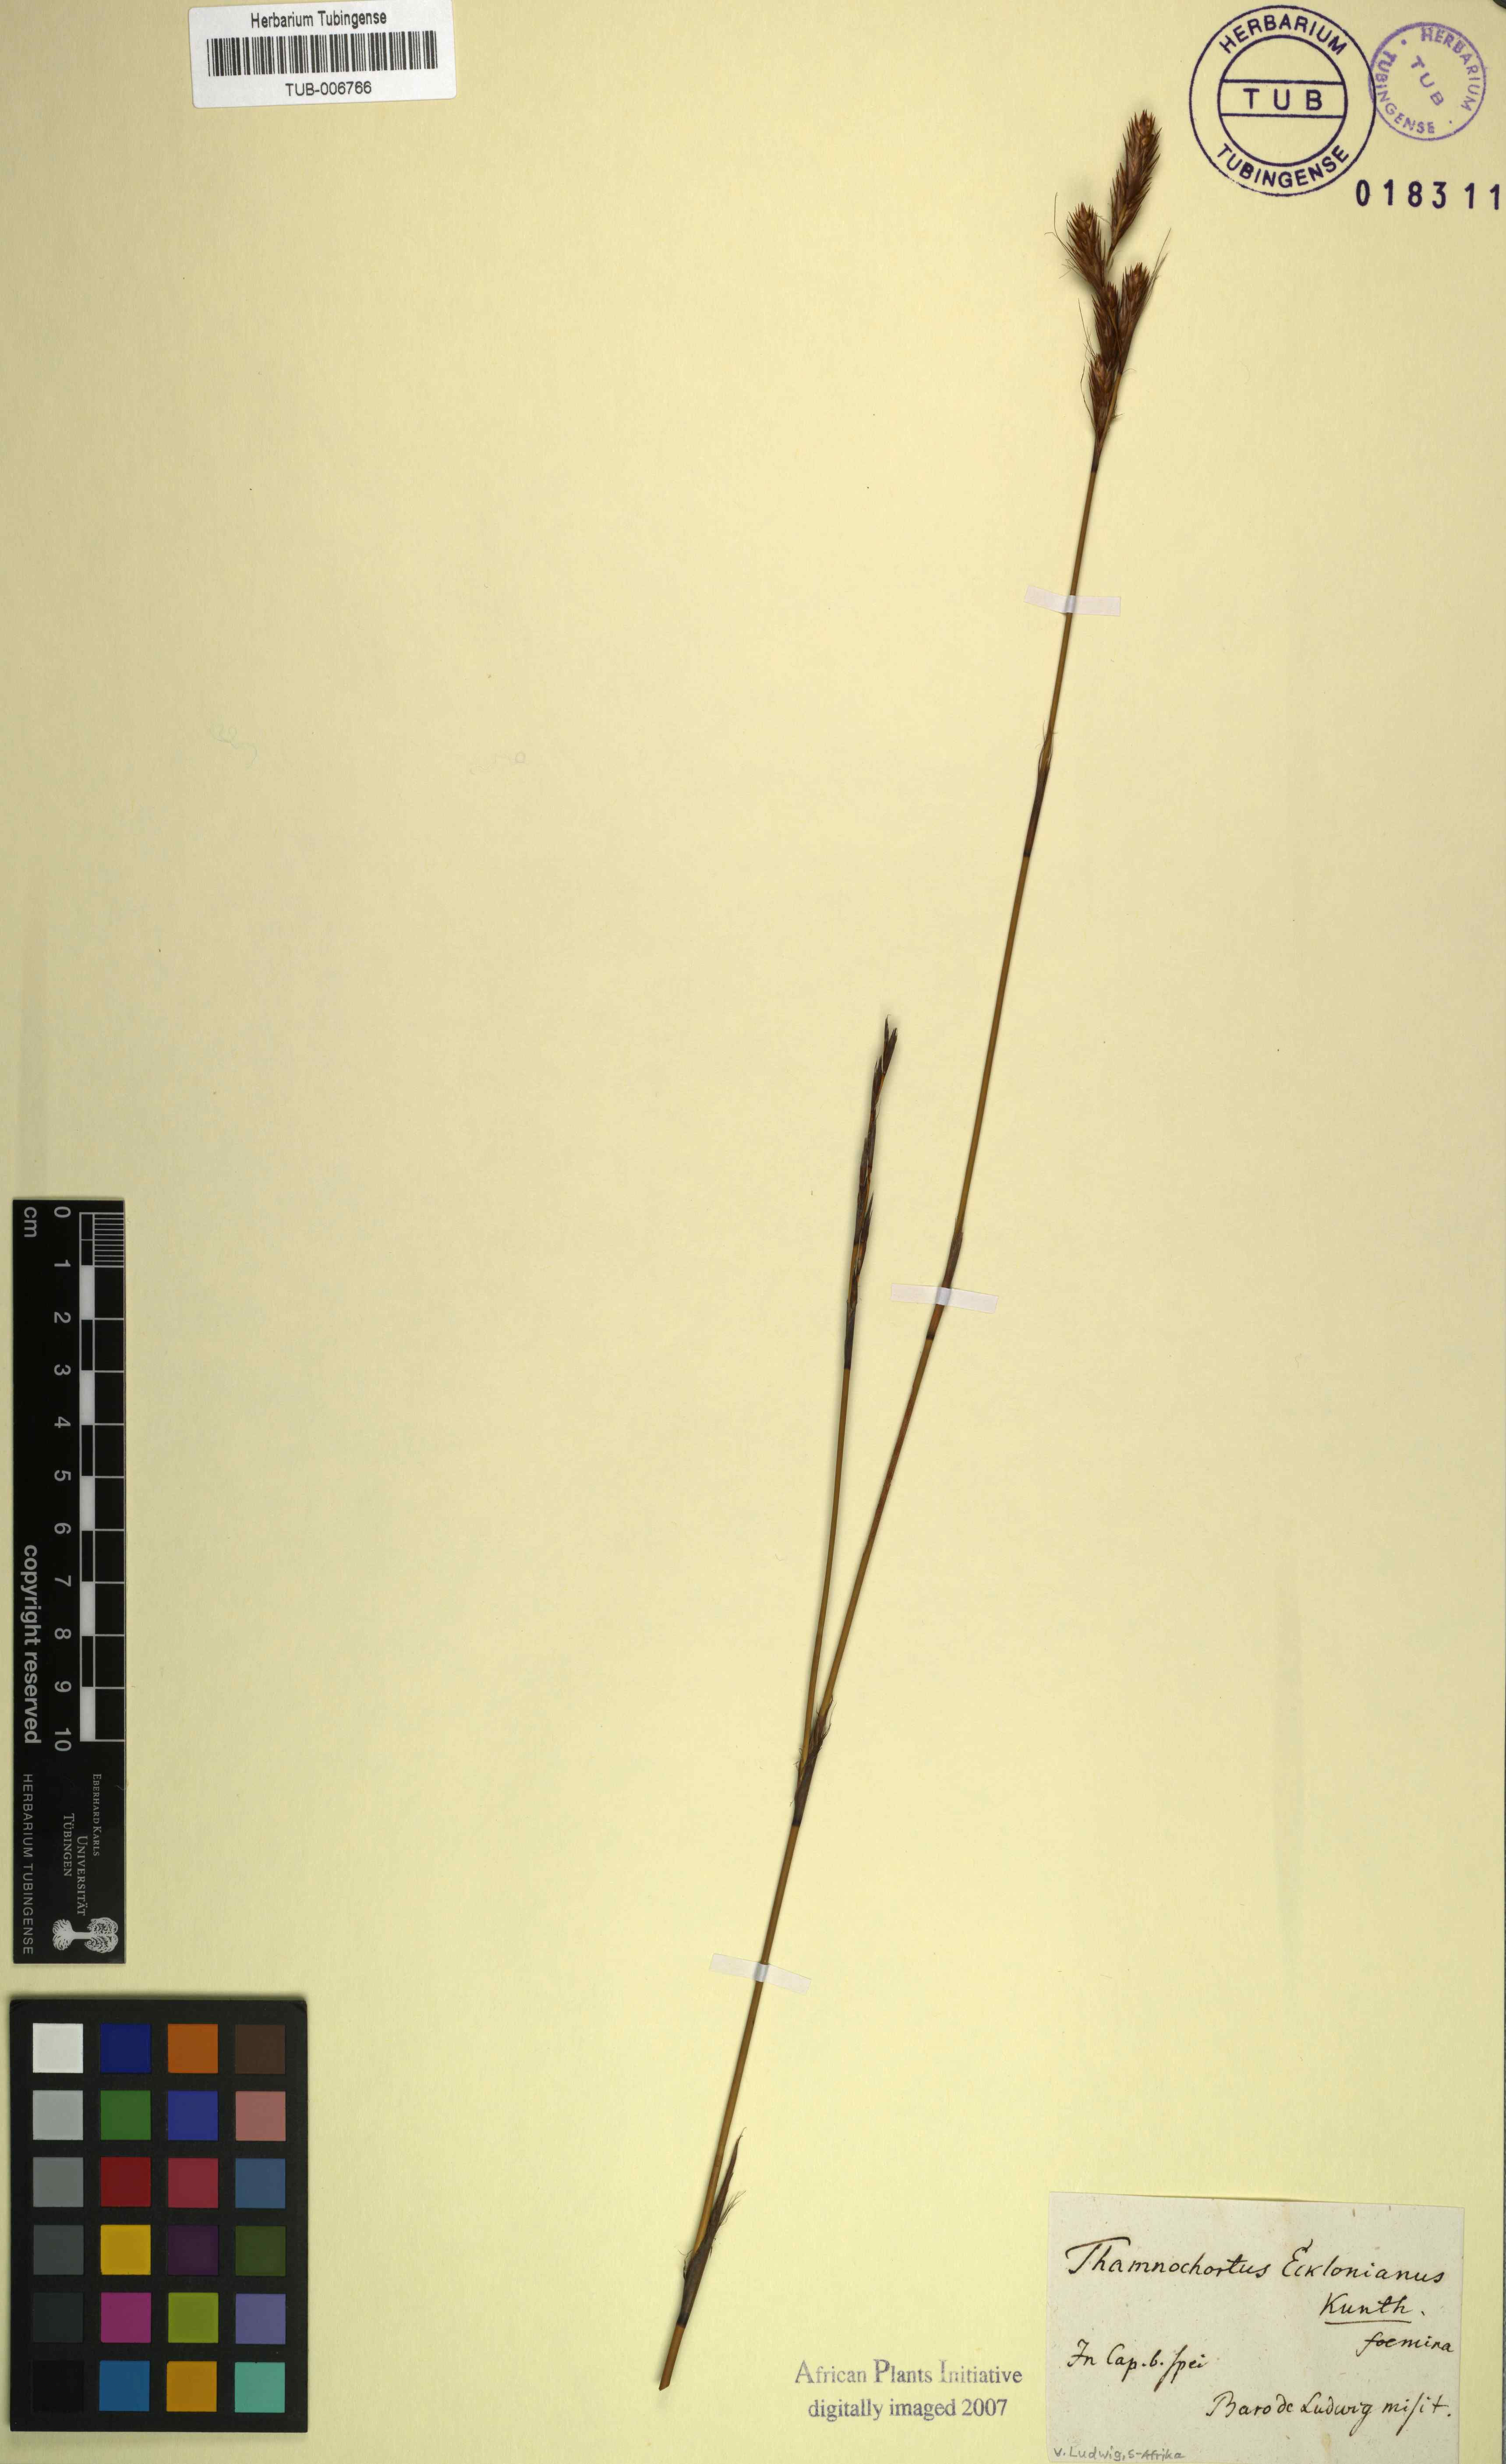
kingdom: Plantae
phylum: Tracheophyta
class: Liliopsida
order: Poales
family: Restionaceae
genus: Thamnochortus
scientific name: Thamnochortus lucens
